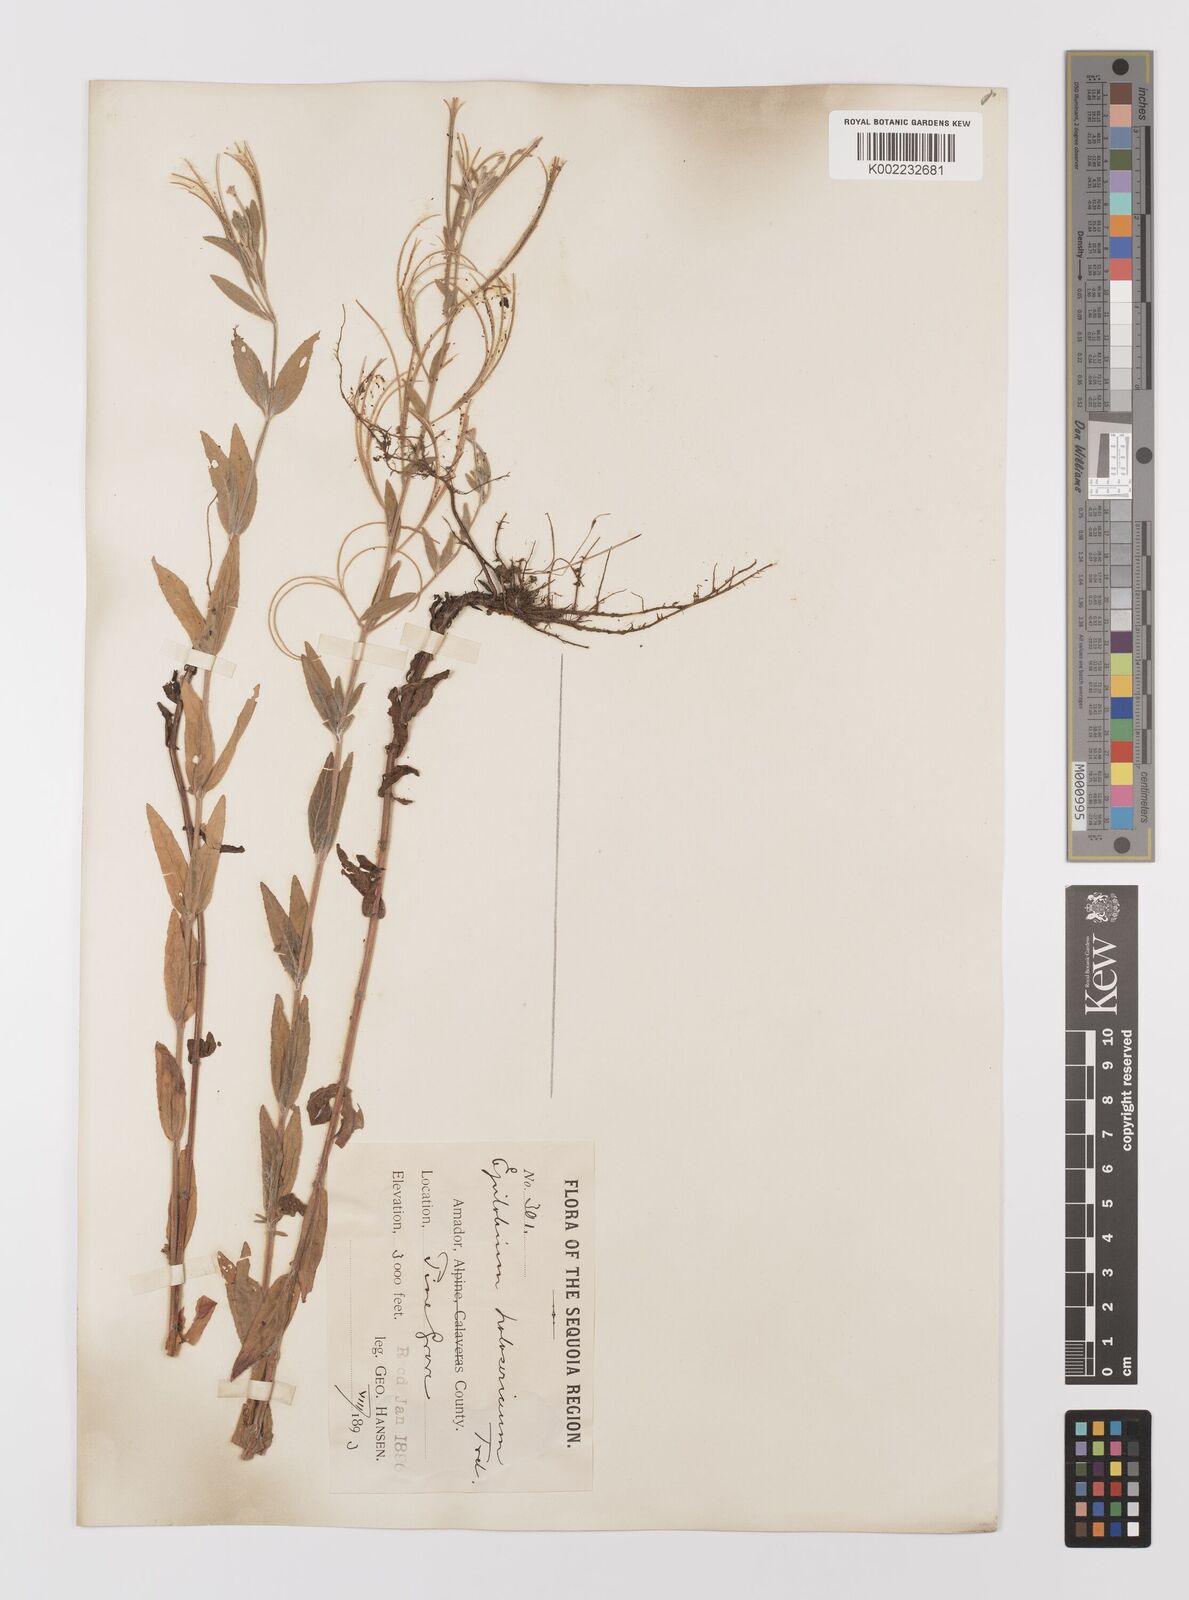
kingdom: Plantae
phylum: Tracheophyta
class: Magnoliopsida
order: Myrtales
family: Onagraceae
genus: Epilobium
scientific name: Epilobium ciliatum
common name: American willowherb
